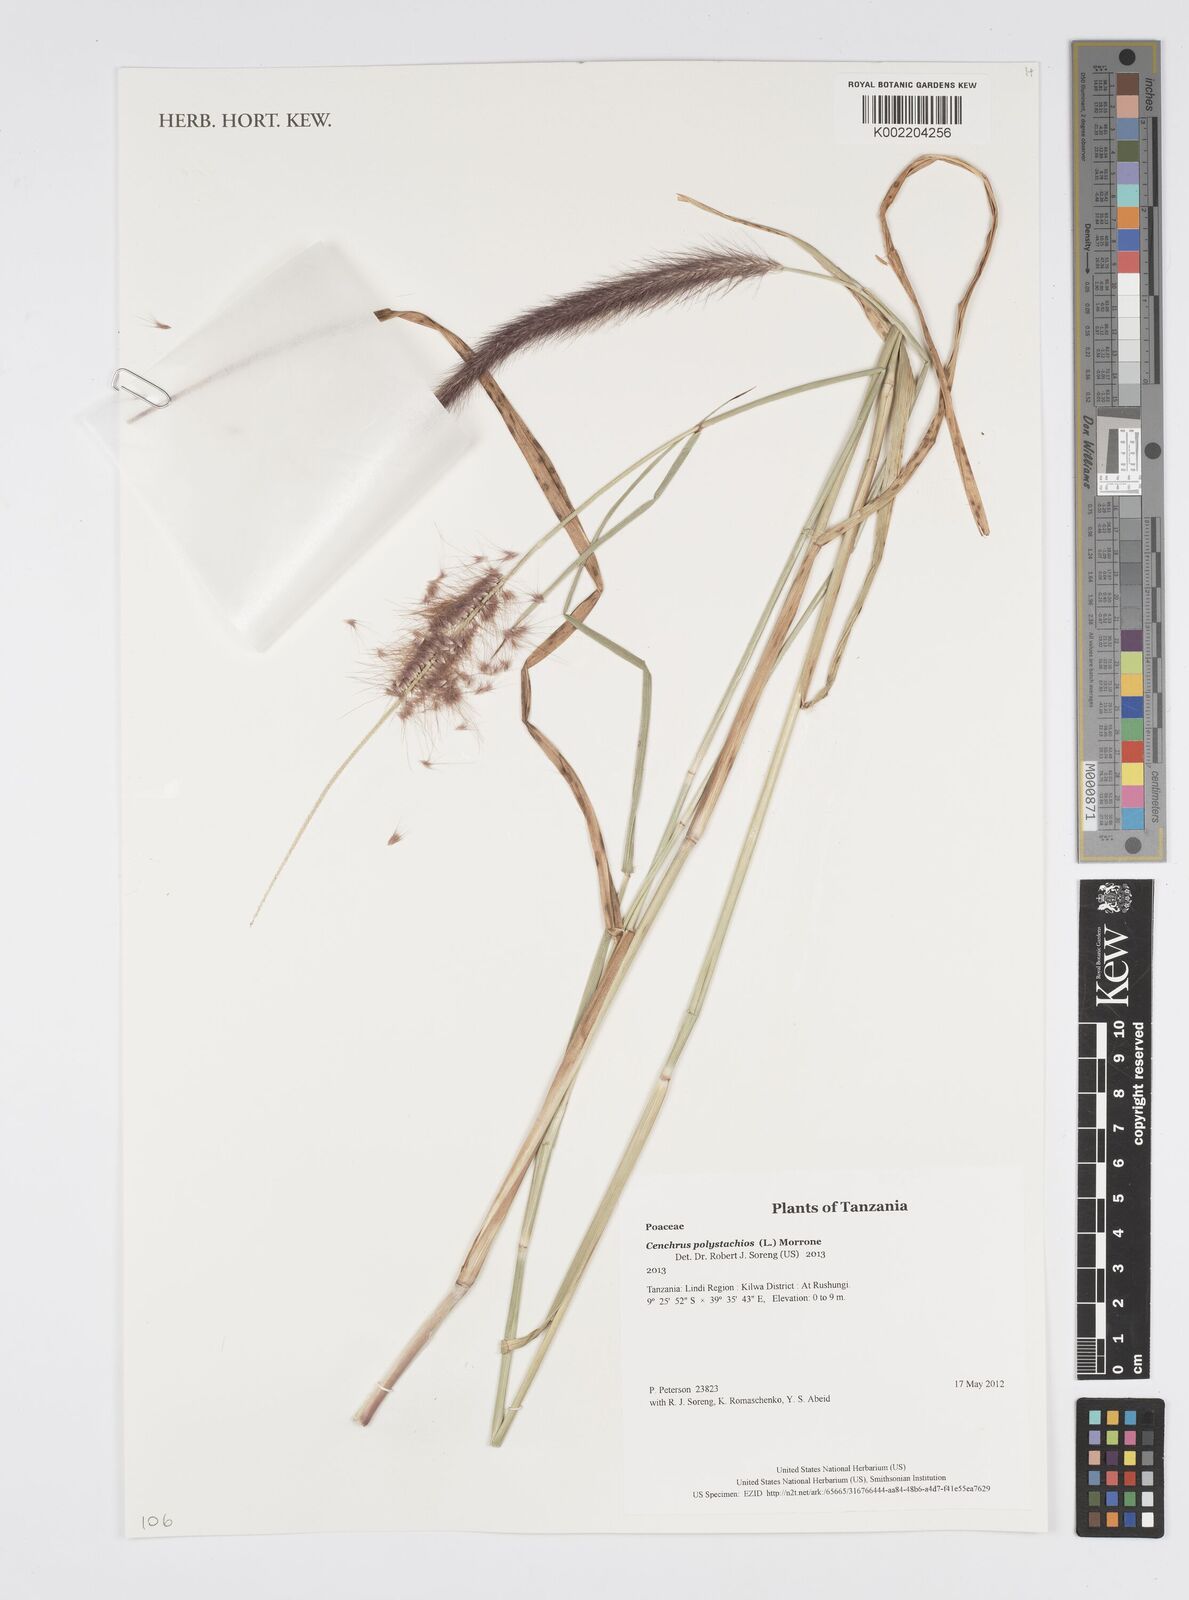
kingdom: Plantae
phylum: Tracheophyta
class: Liliopsida
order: Poales
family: Poaceae
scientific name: Poaceae
